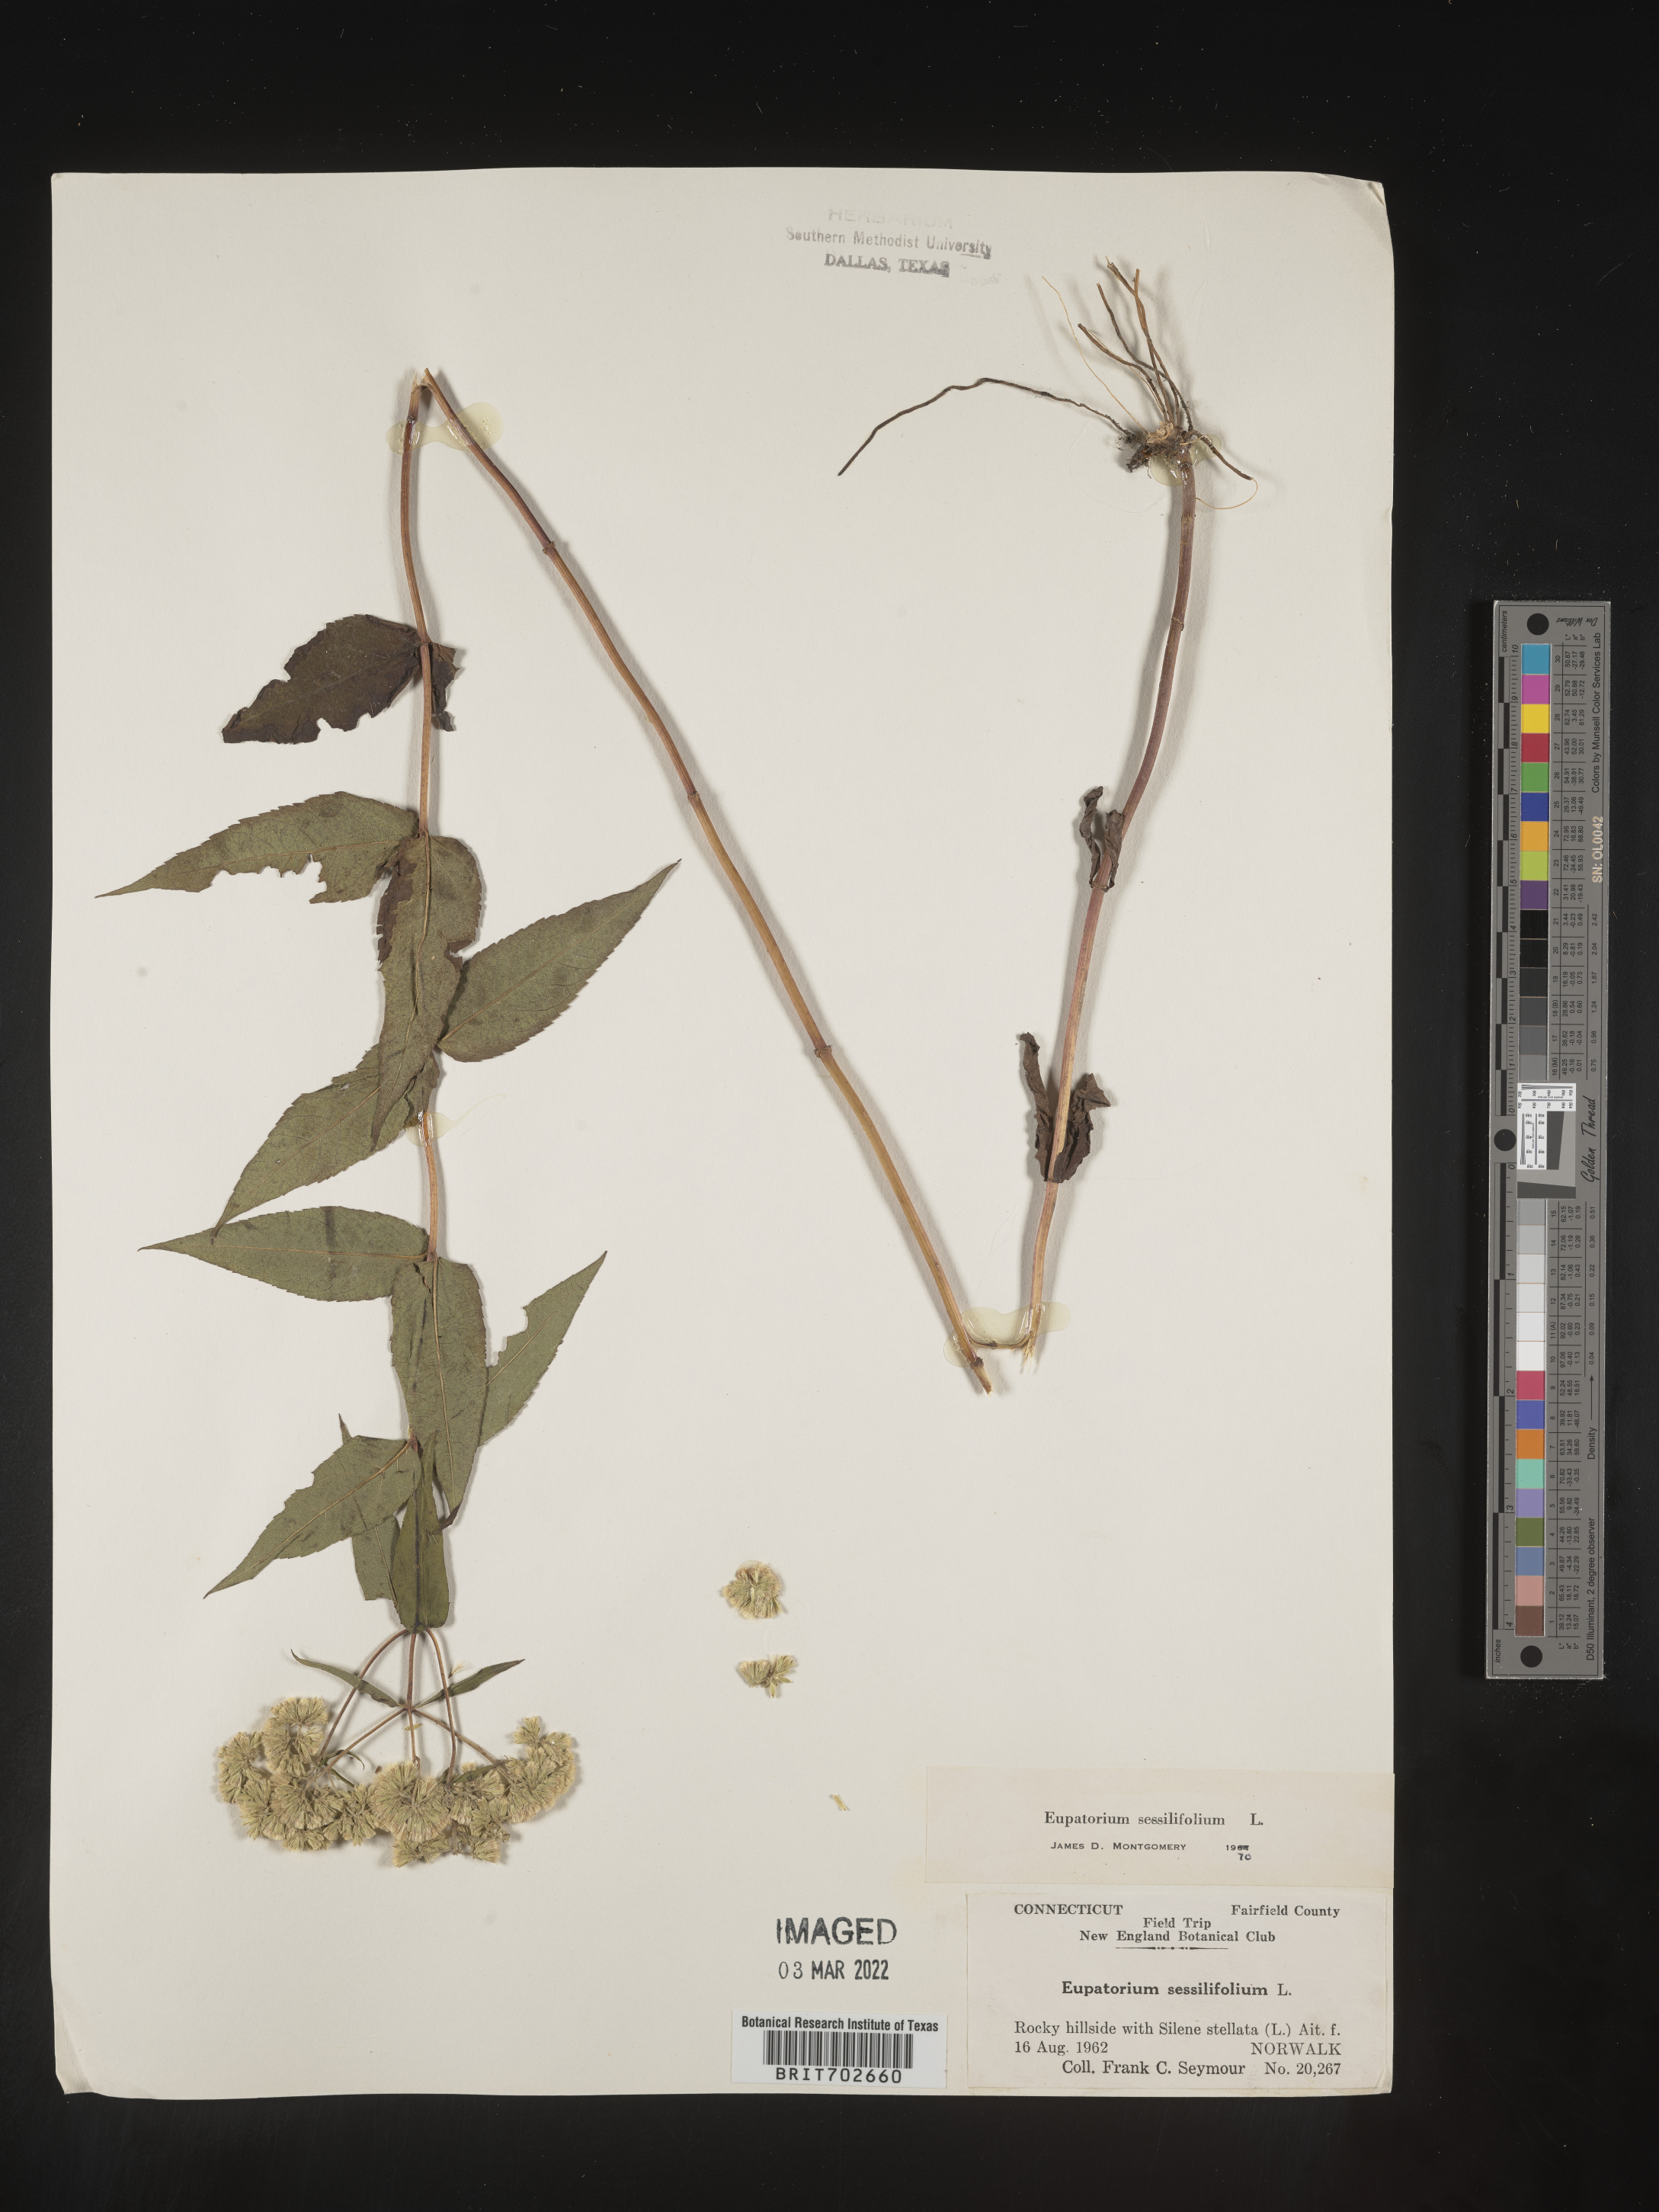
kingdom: Plantae
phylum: Tracheophyta
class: Magnoliopsida
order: Asterales
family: Asteraceae
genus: Eupatorium
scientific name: Eupatorium sessilifolium
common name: Upland boneset
